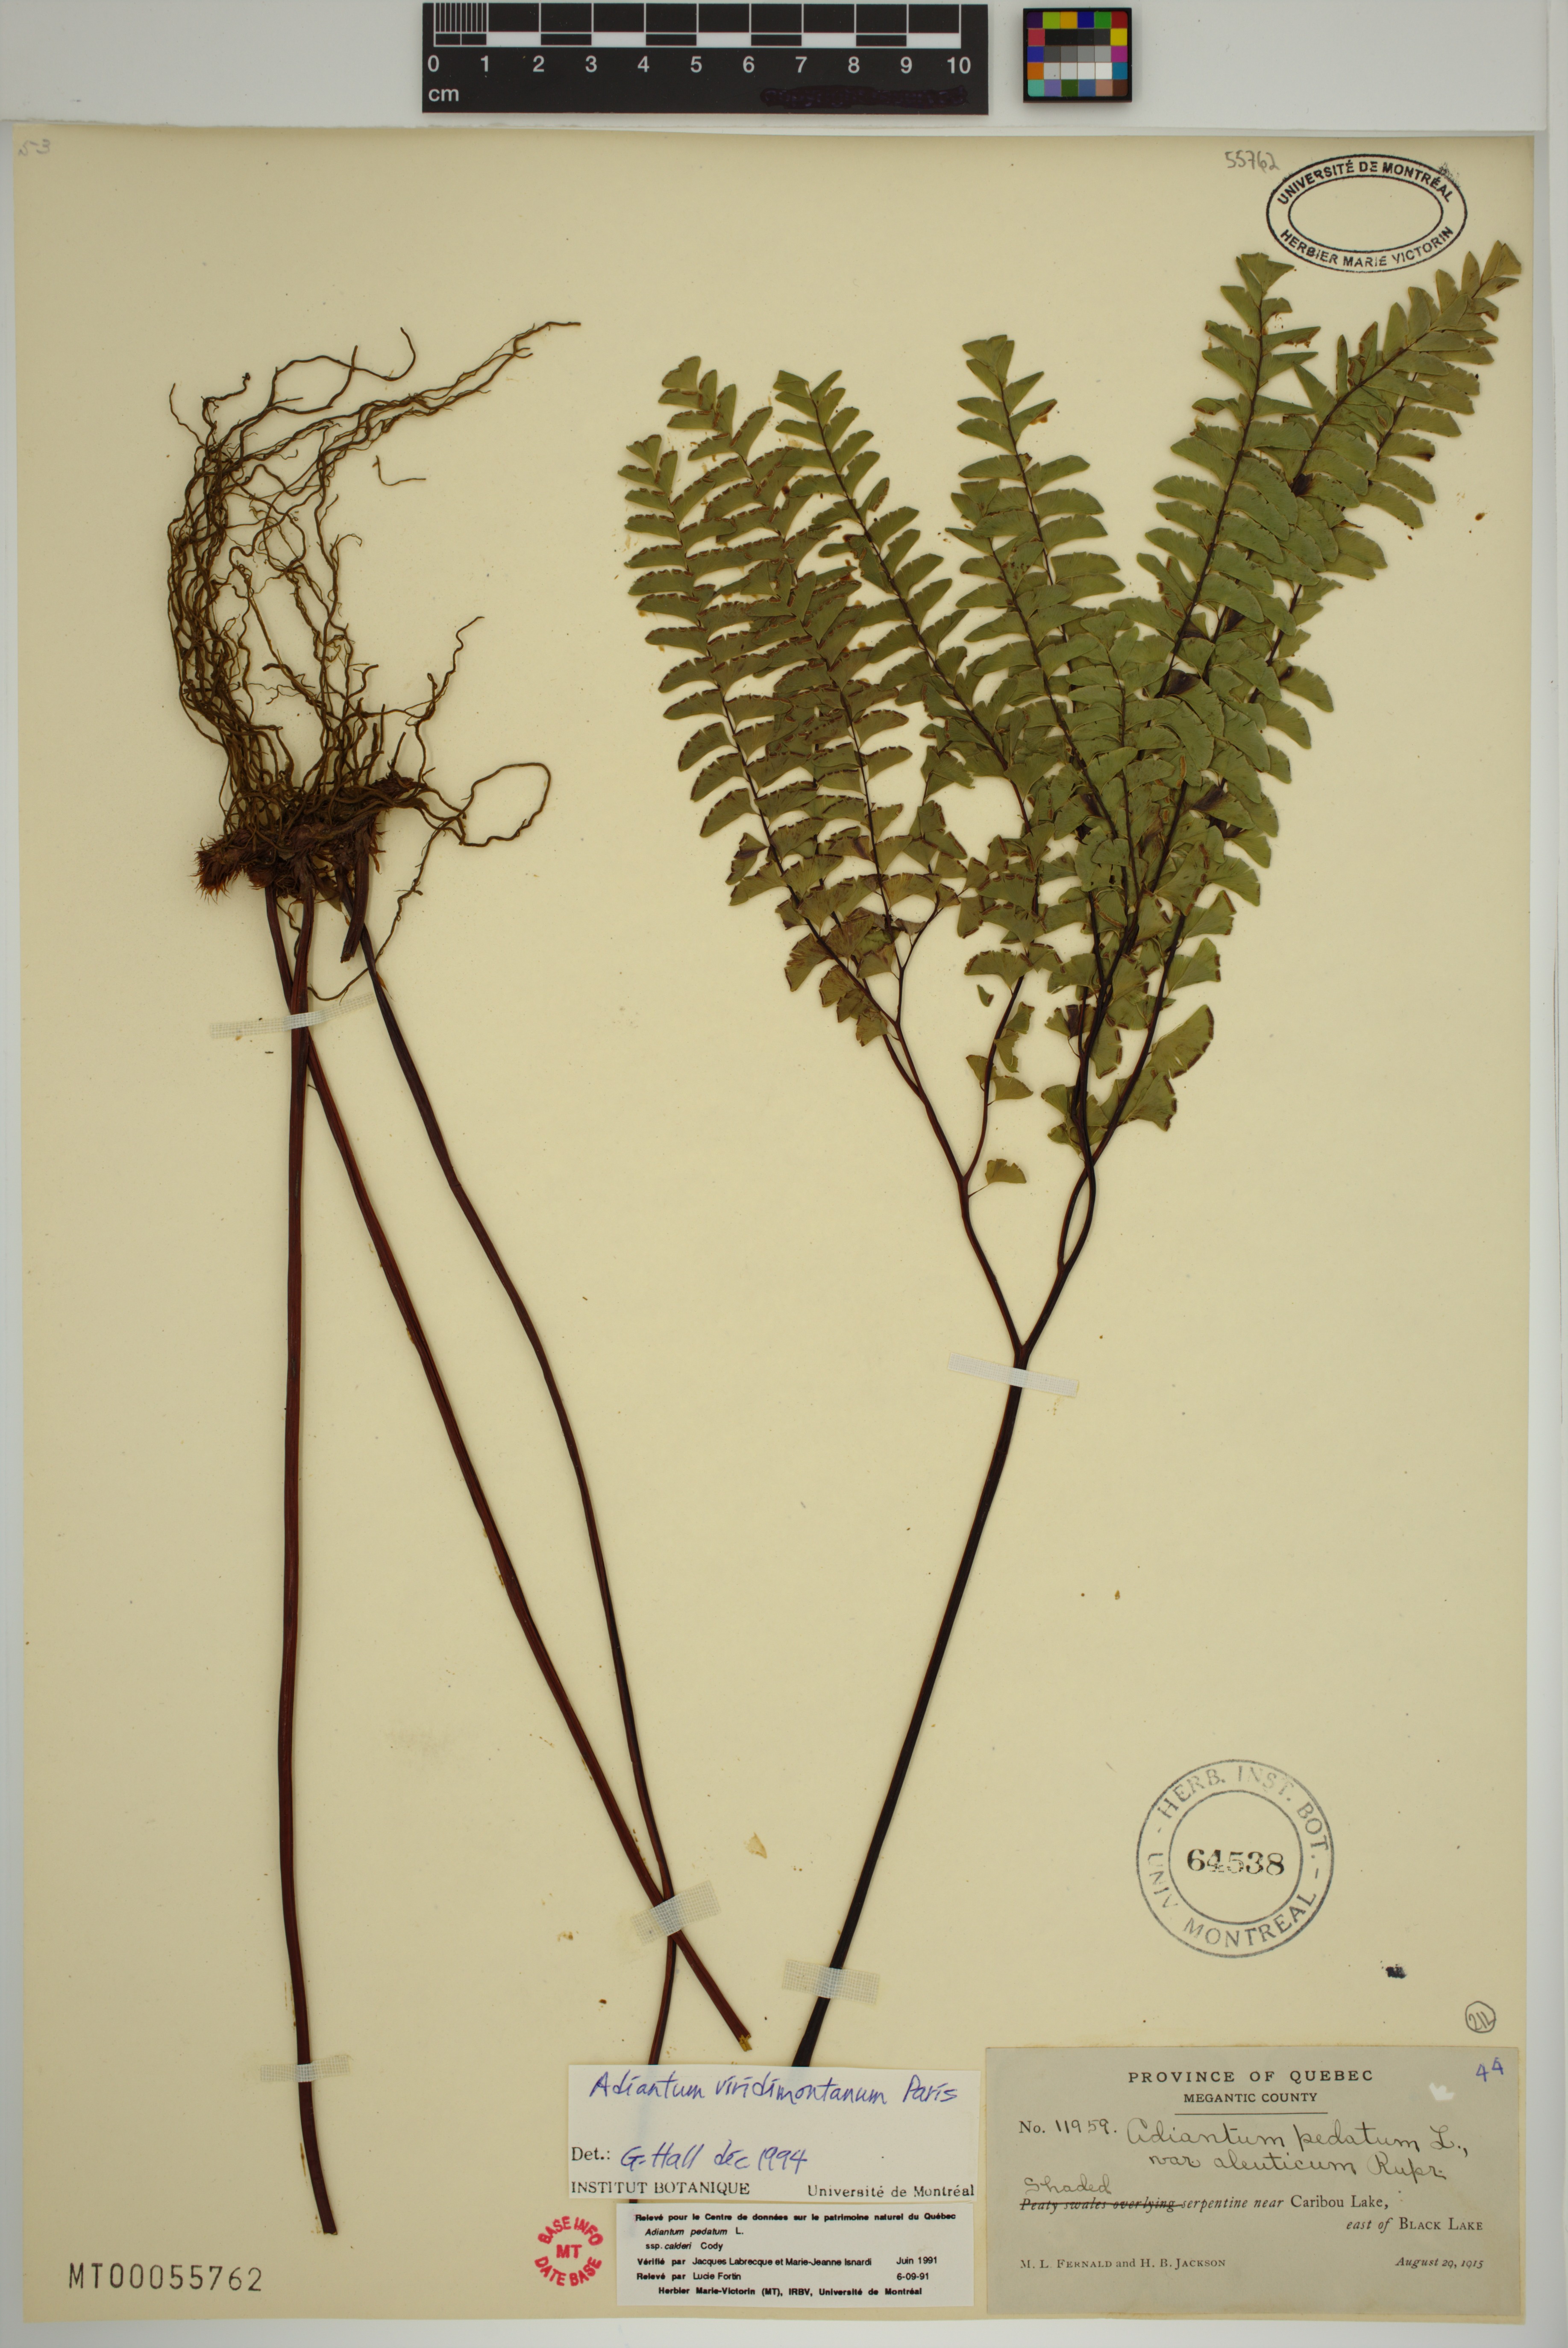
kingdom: Plantae
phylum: Tracheophyta
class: Polypodiopsida
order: Polypodiales
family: Pteridaceae
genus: Adiantum
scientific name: Adiantum viridimontanum
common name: Green mountain maidenhair
